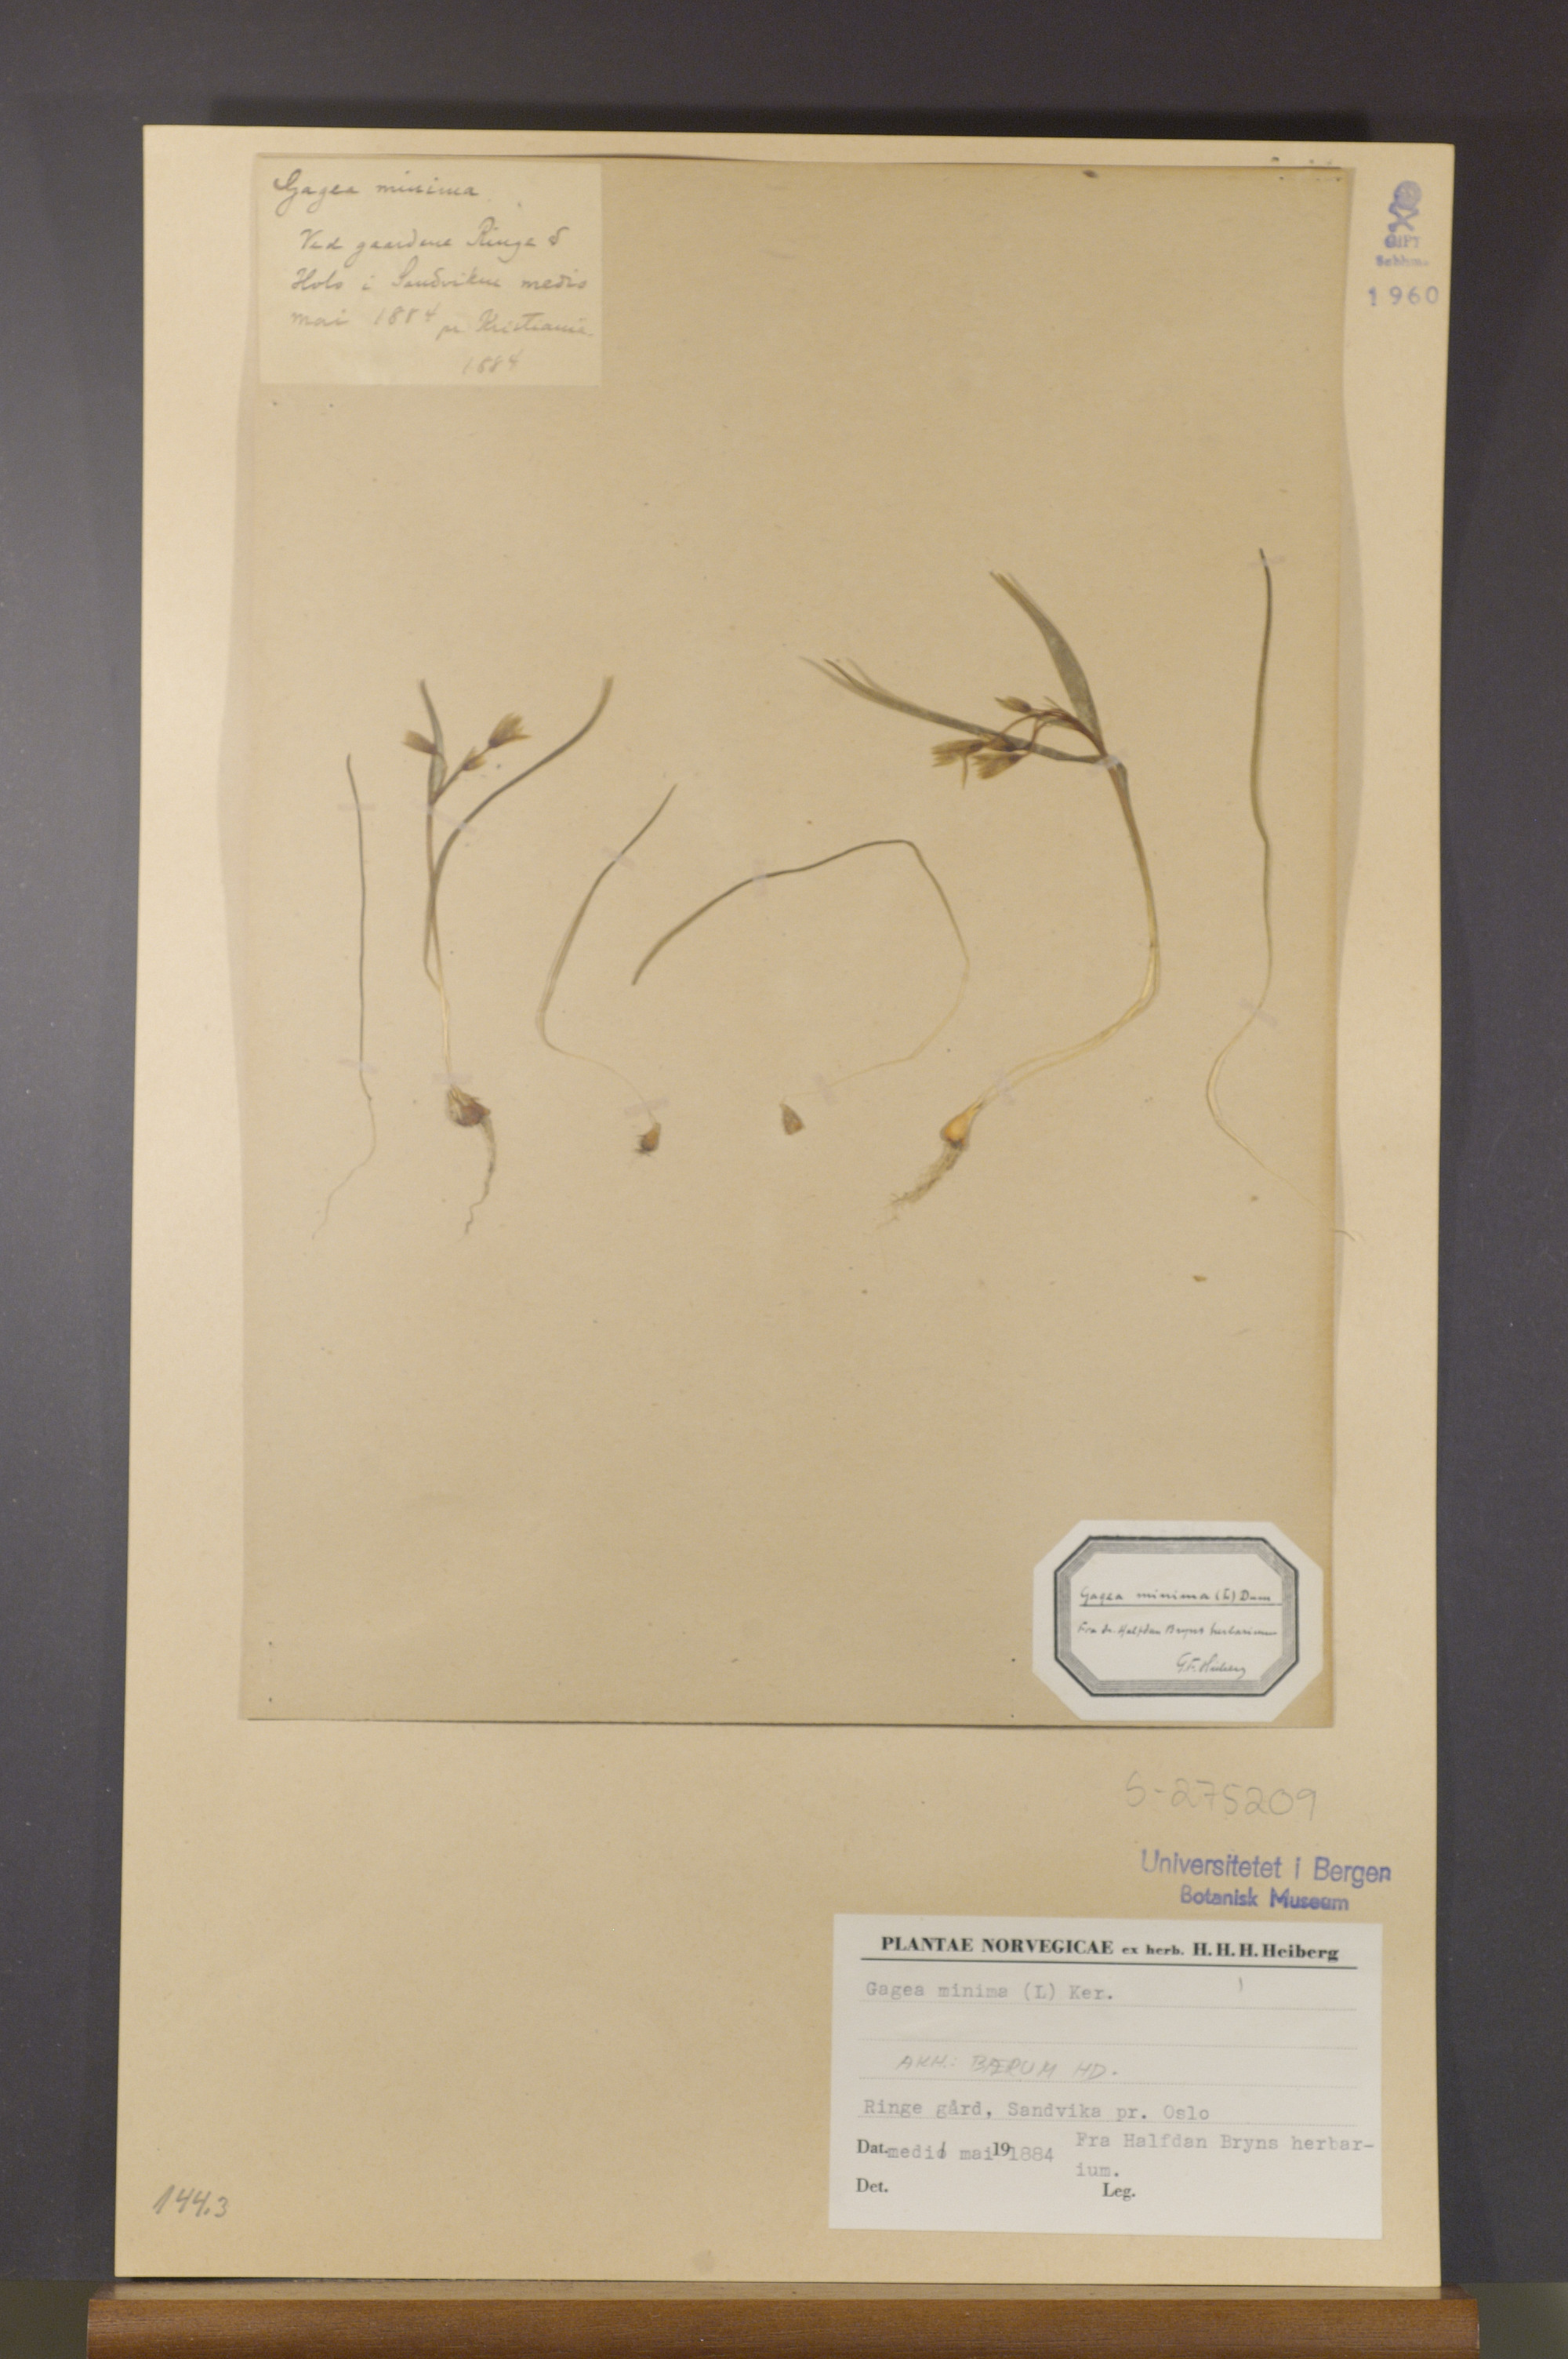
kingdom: Plantae
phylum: Tracheophyta
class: Liliopsida
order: Liliales
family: Liliaceae
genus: Gagea
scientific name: Gagea minima
